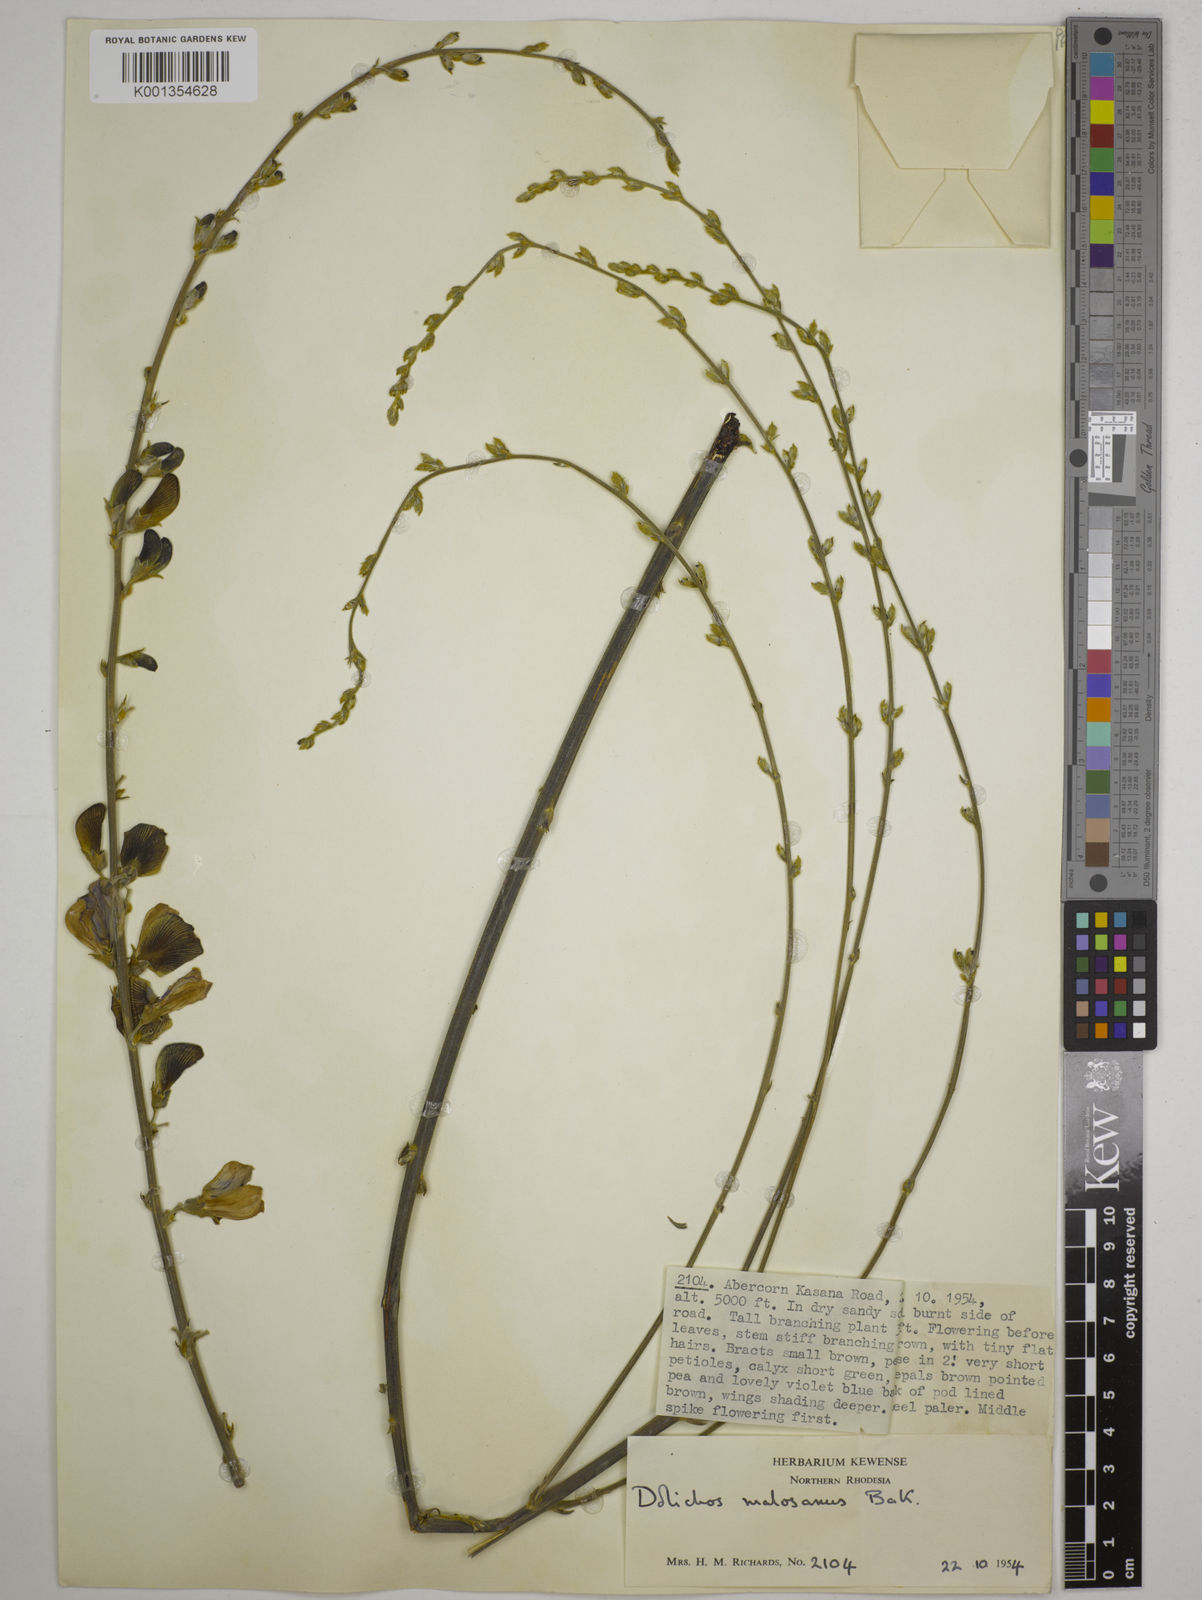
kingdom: Plantae
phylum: Tracheophyta
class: Magnoliopsida
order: Fabales
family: Fabaceae
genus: Dolichos
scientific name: Dolichos kilimandscharicus
